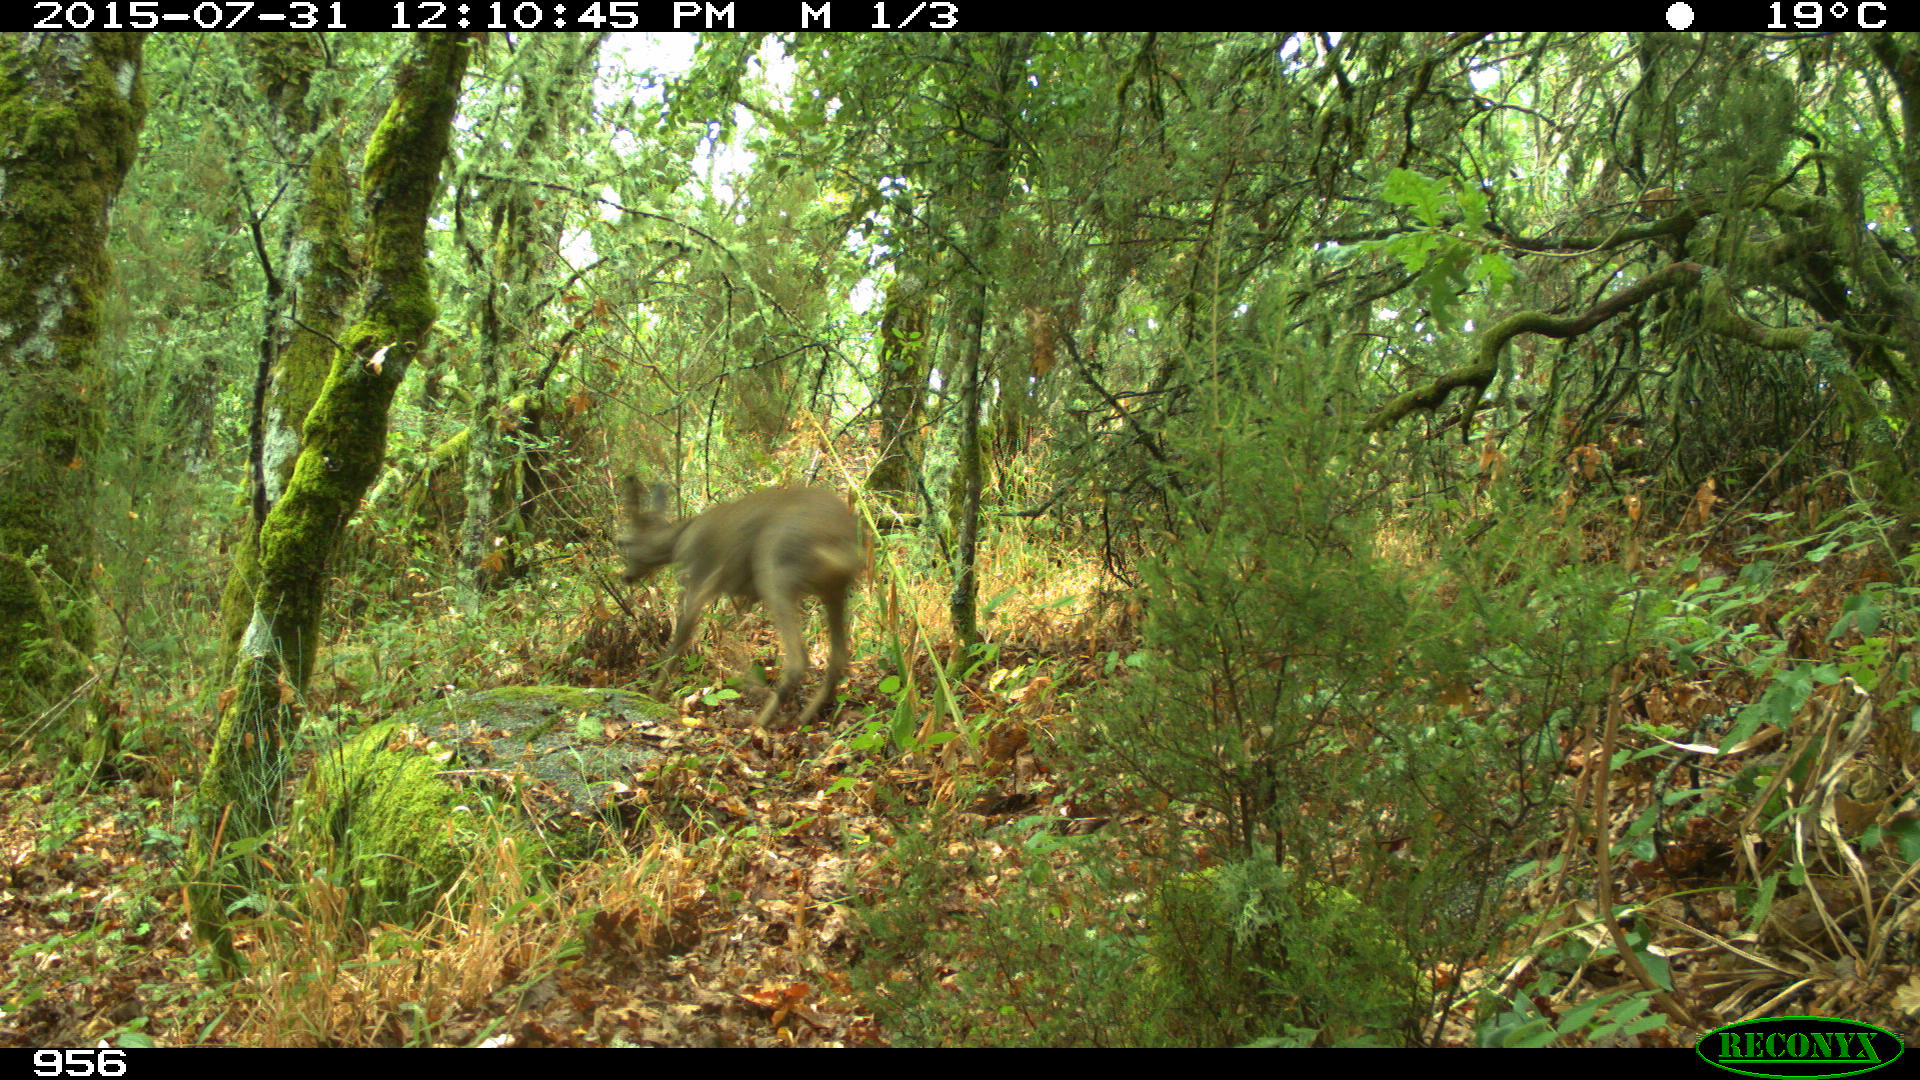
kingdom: Animalia
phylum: Chordata
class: Mammalia
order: Artiodactyla
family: Cervidae
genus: Capreolus
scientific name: Capreolus capreolus
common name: Western roe deer
